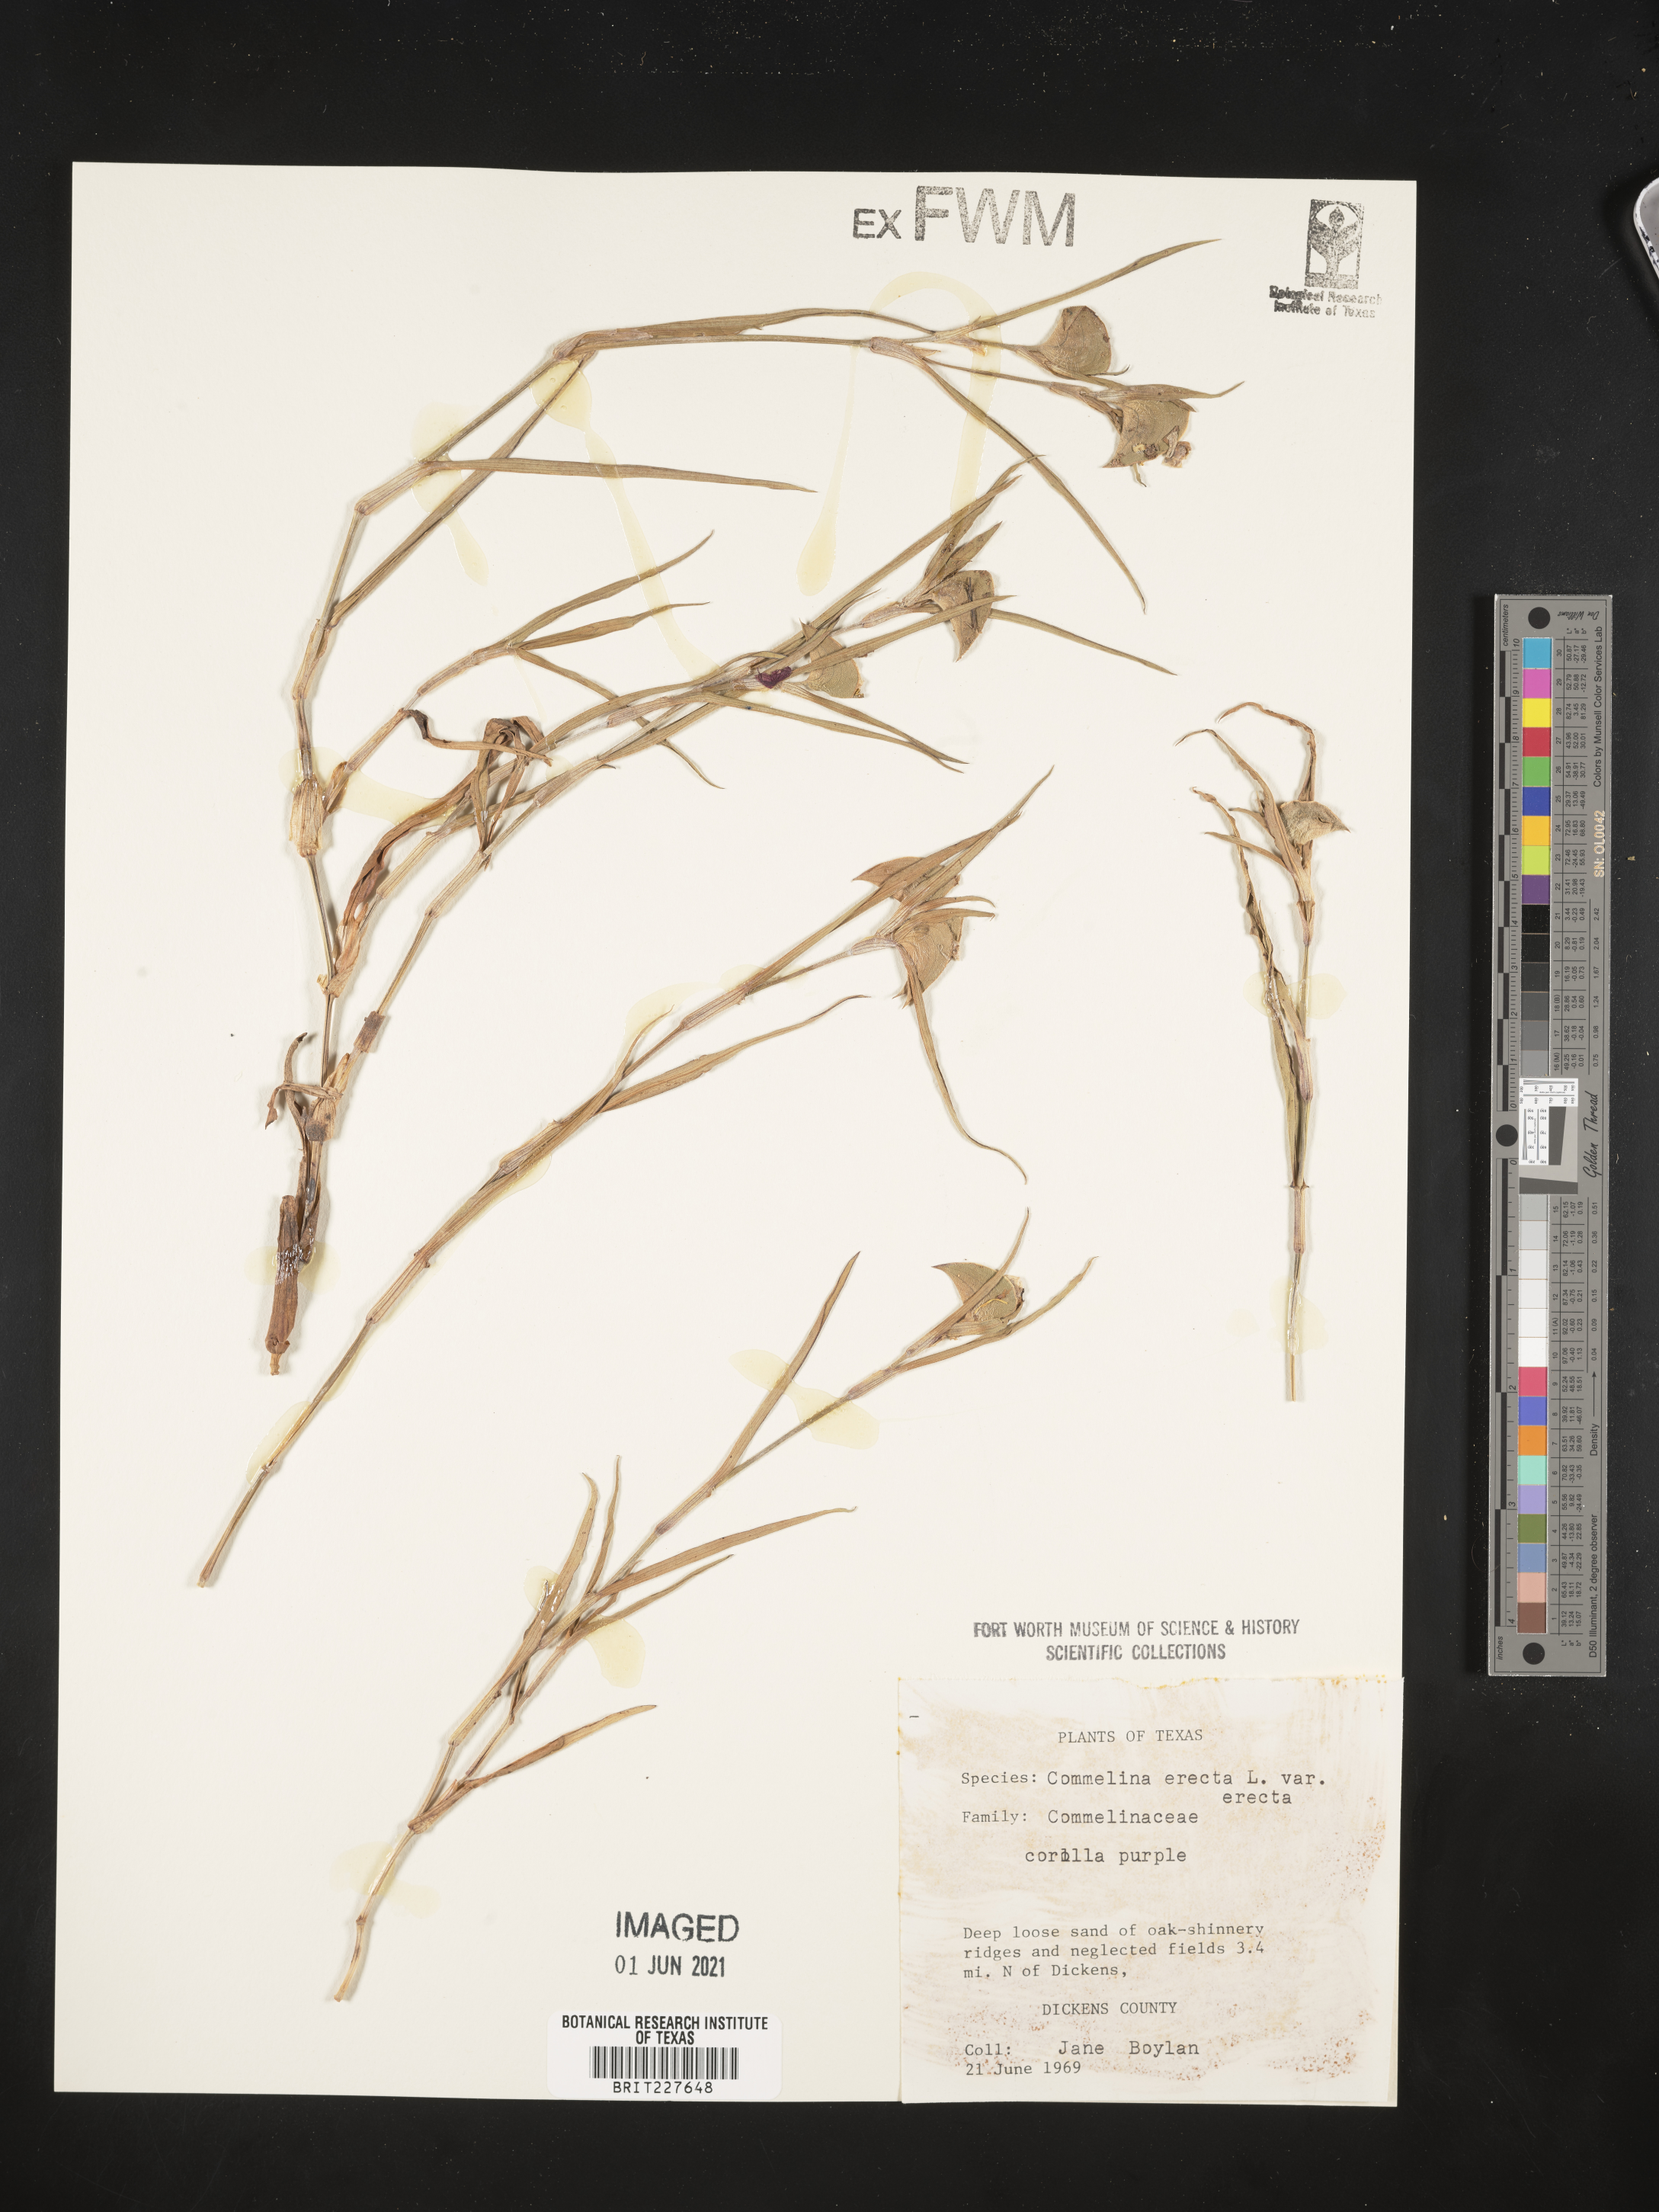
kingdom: Plantae
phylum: Tracheophyta
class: Liliopsida
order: Commelinales
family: Commelinaceae
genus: Commelina
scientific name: Commelina erecta
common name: Blousel blommetjie
